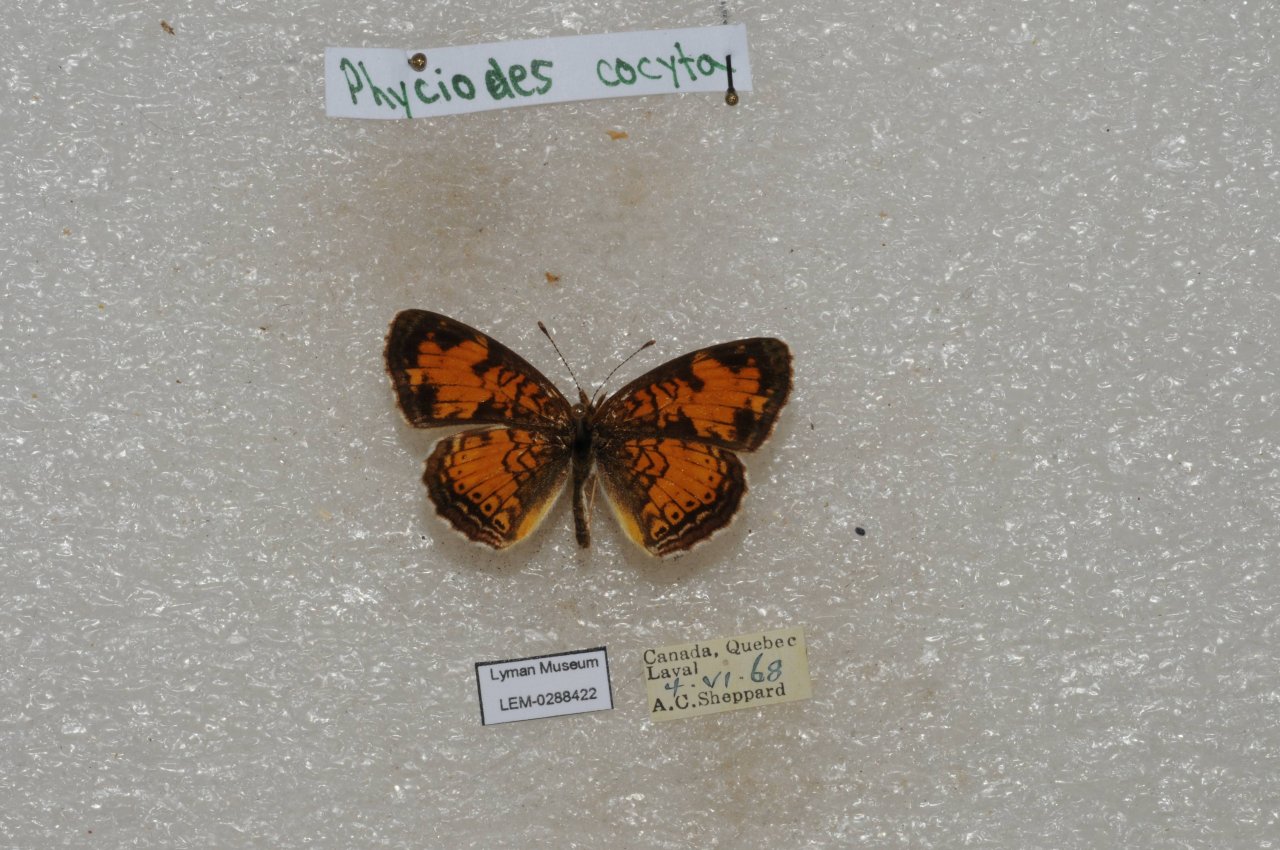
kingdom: Animalia
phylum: Arthropoda
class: Insecta
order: Lepidoptera
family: Nymphalidae
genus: Phyciodes
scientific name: Phyciodes tharos
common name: Northern Crescent
